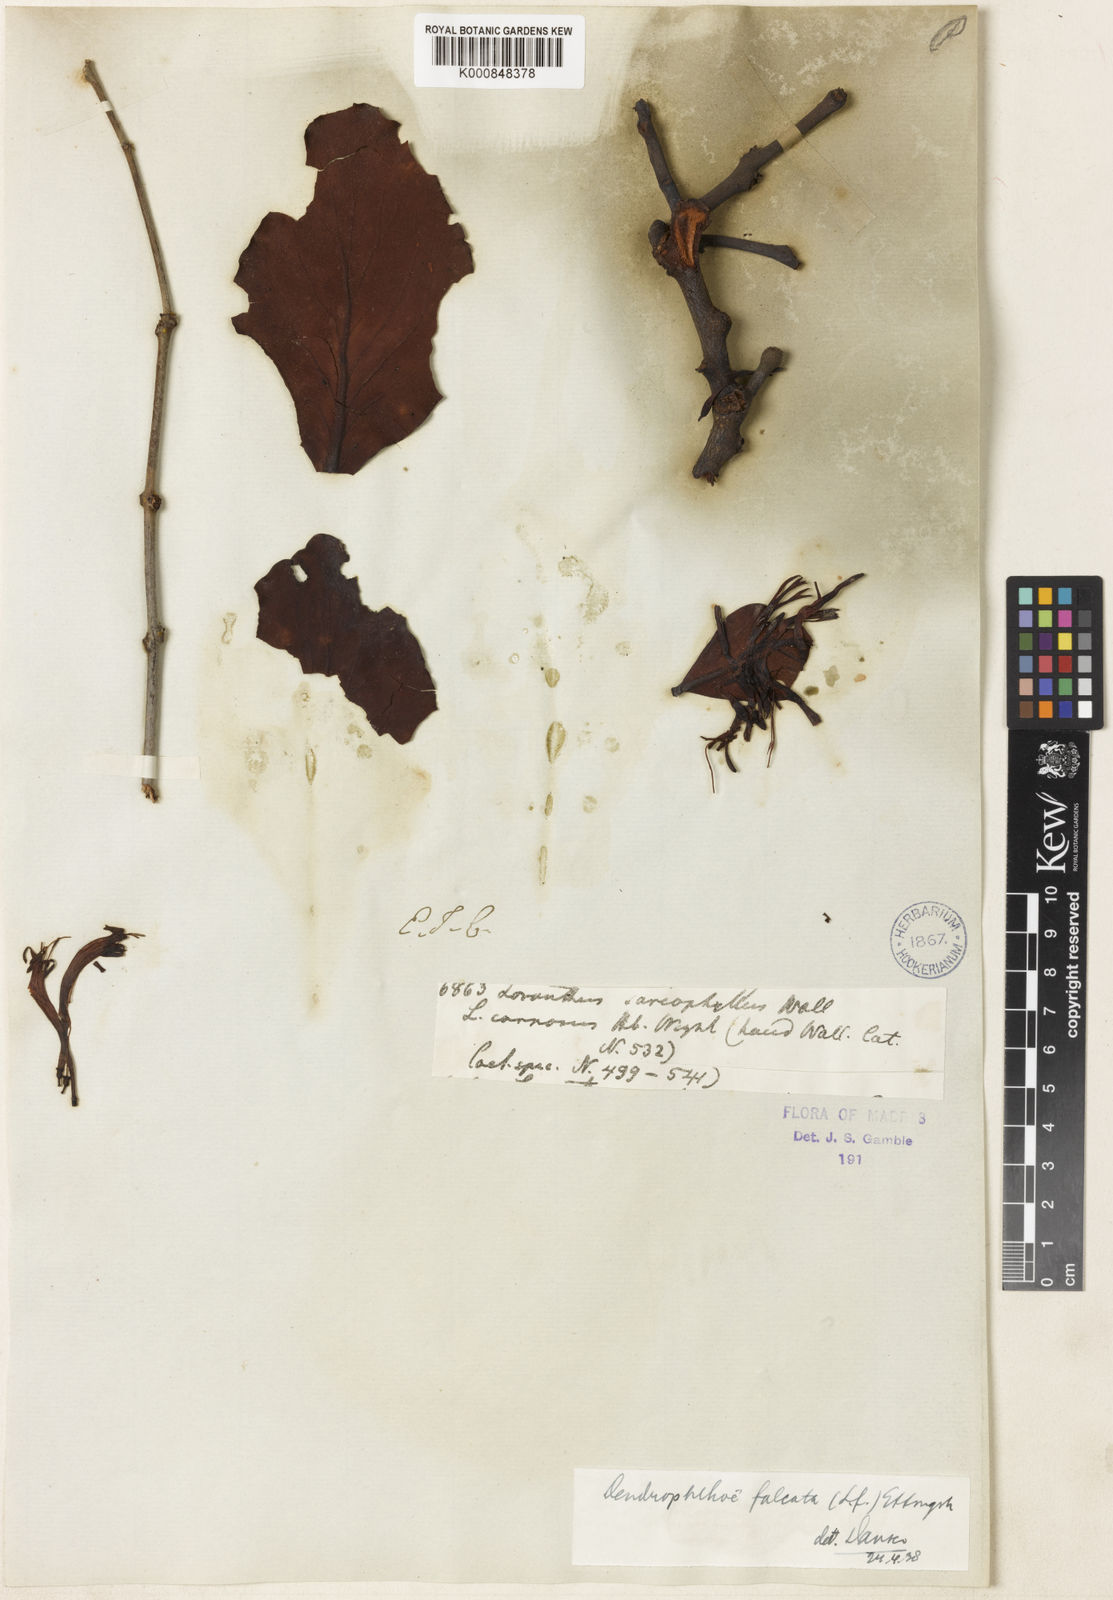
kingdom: Plantae
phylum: Tracheophyta
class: Magnoliopsida
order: Santalales
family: Loranthaceae
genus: Dendrophthoe
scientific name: Dendrophthoe falcata
